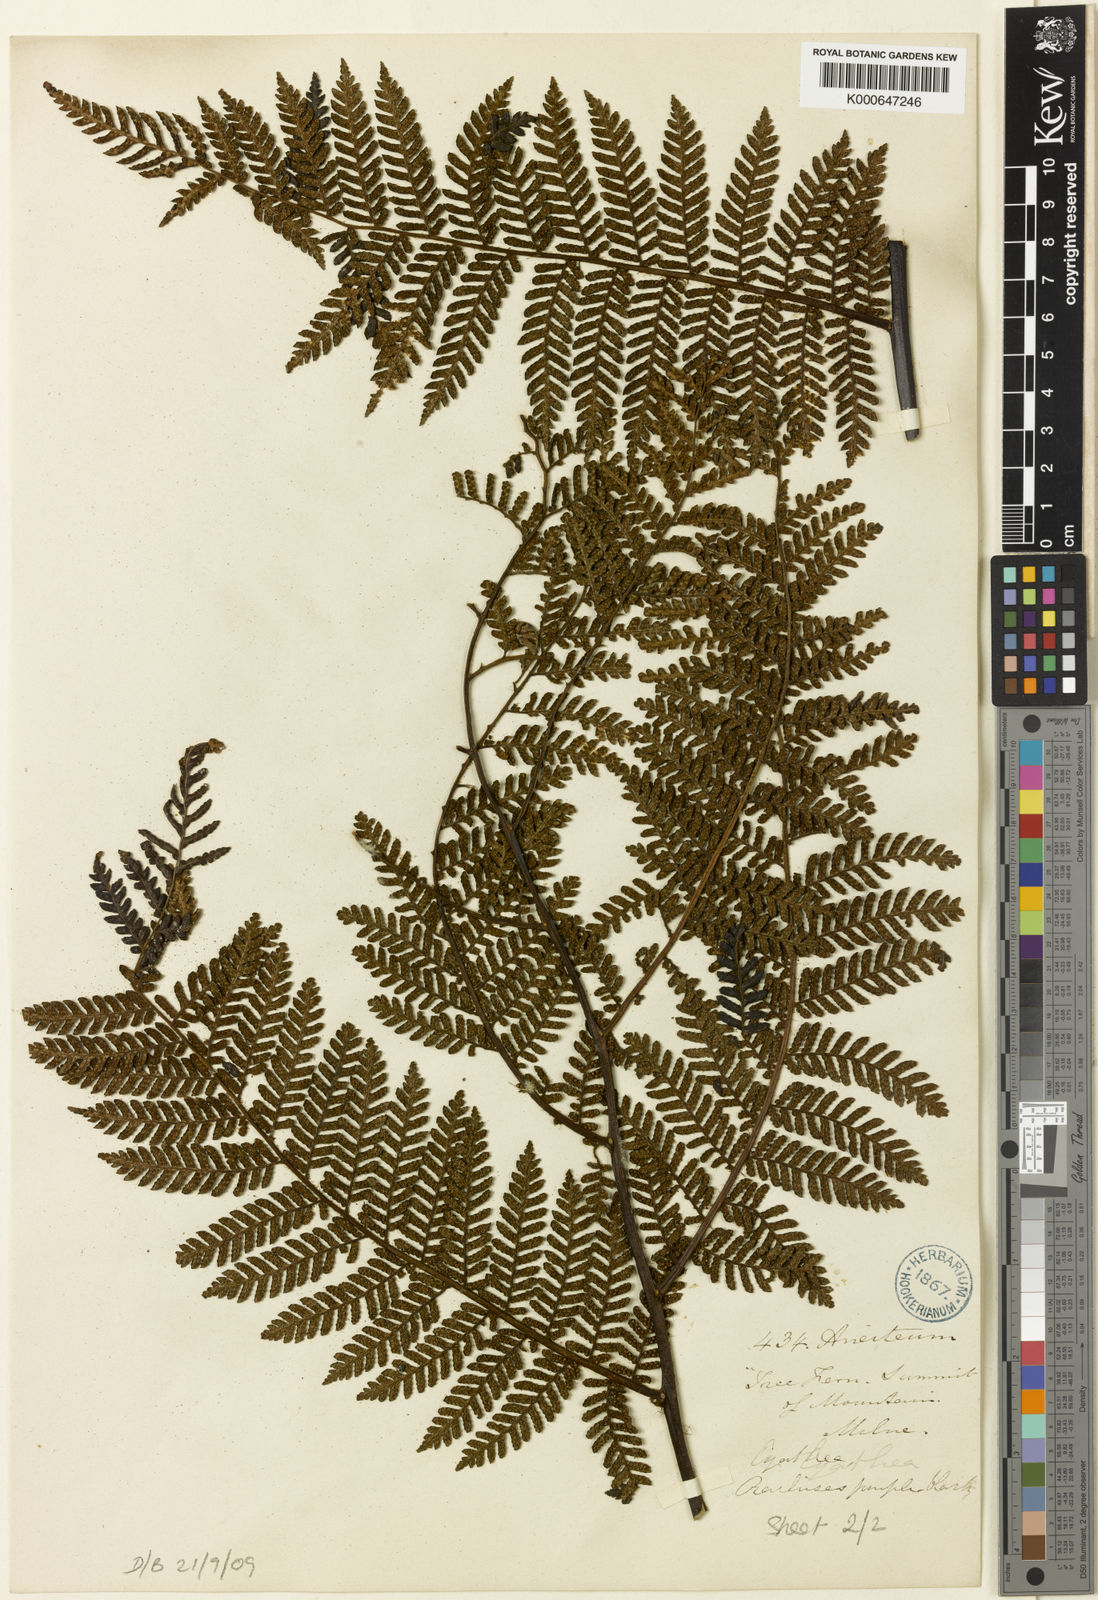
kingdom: Plantae
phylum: Tracheophyta
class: Polypodiopsida
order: Cyatheales
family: Cyatheaceae
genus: Alsophila
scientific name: Alsophila aneitensis
